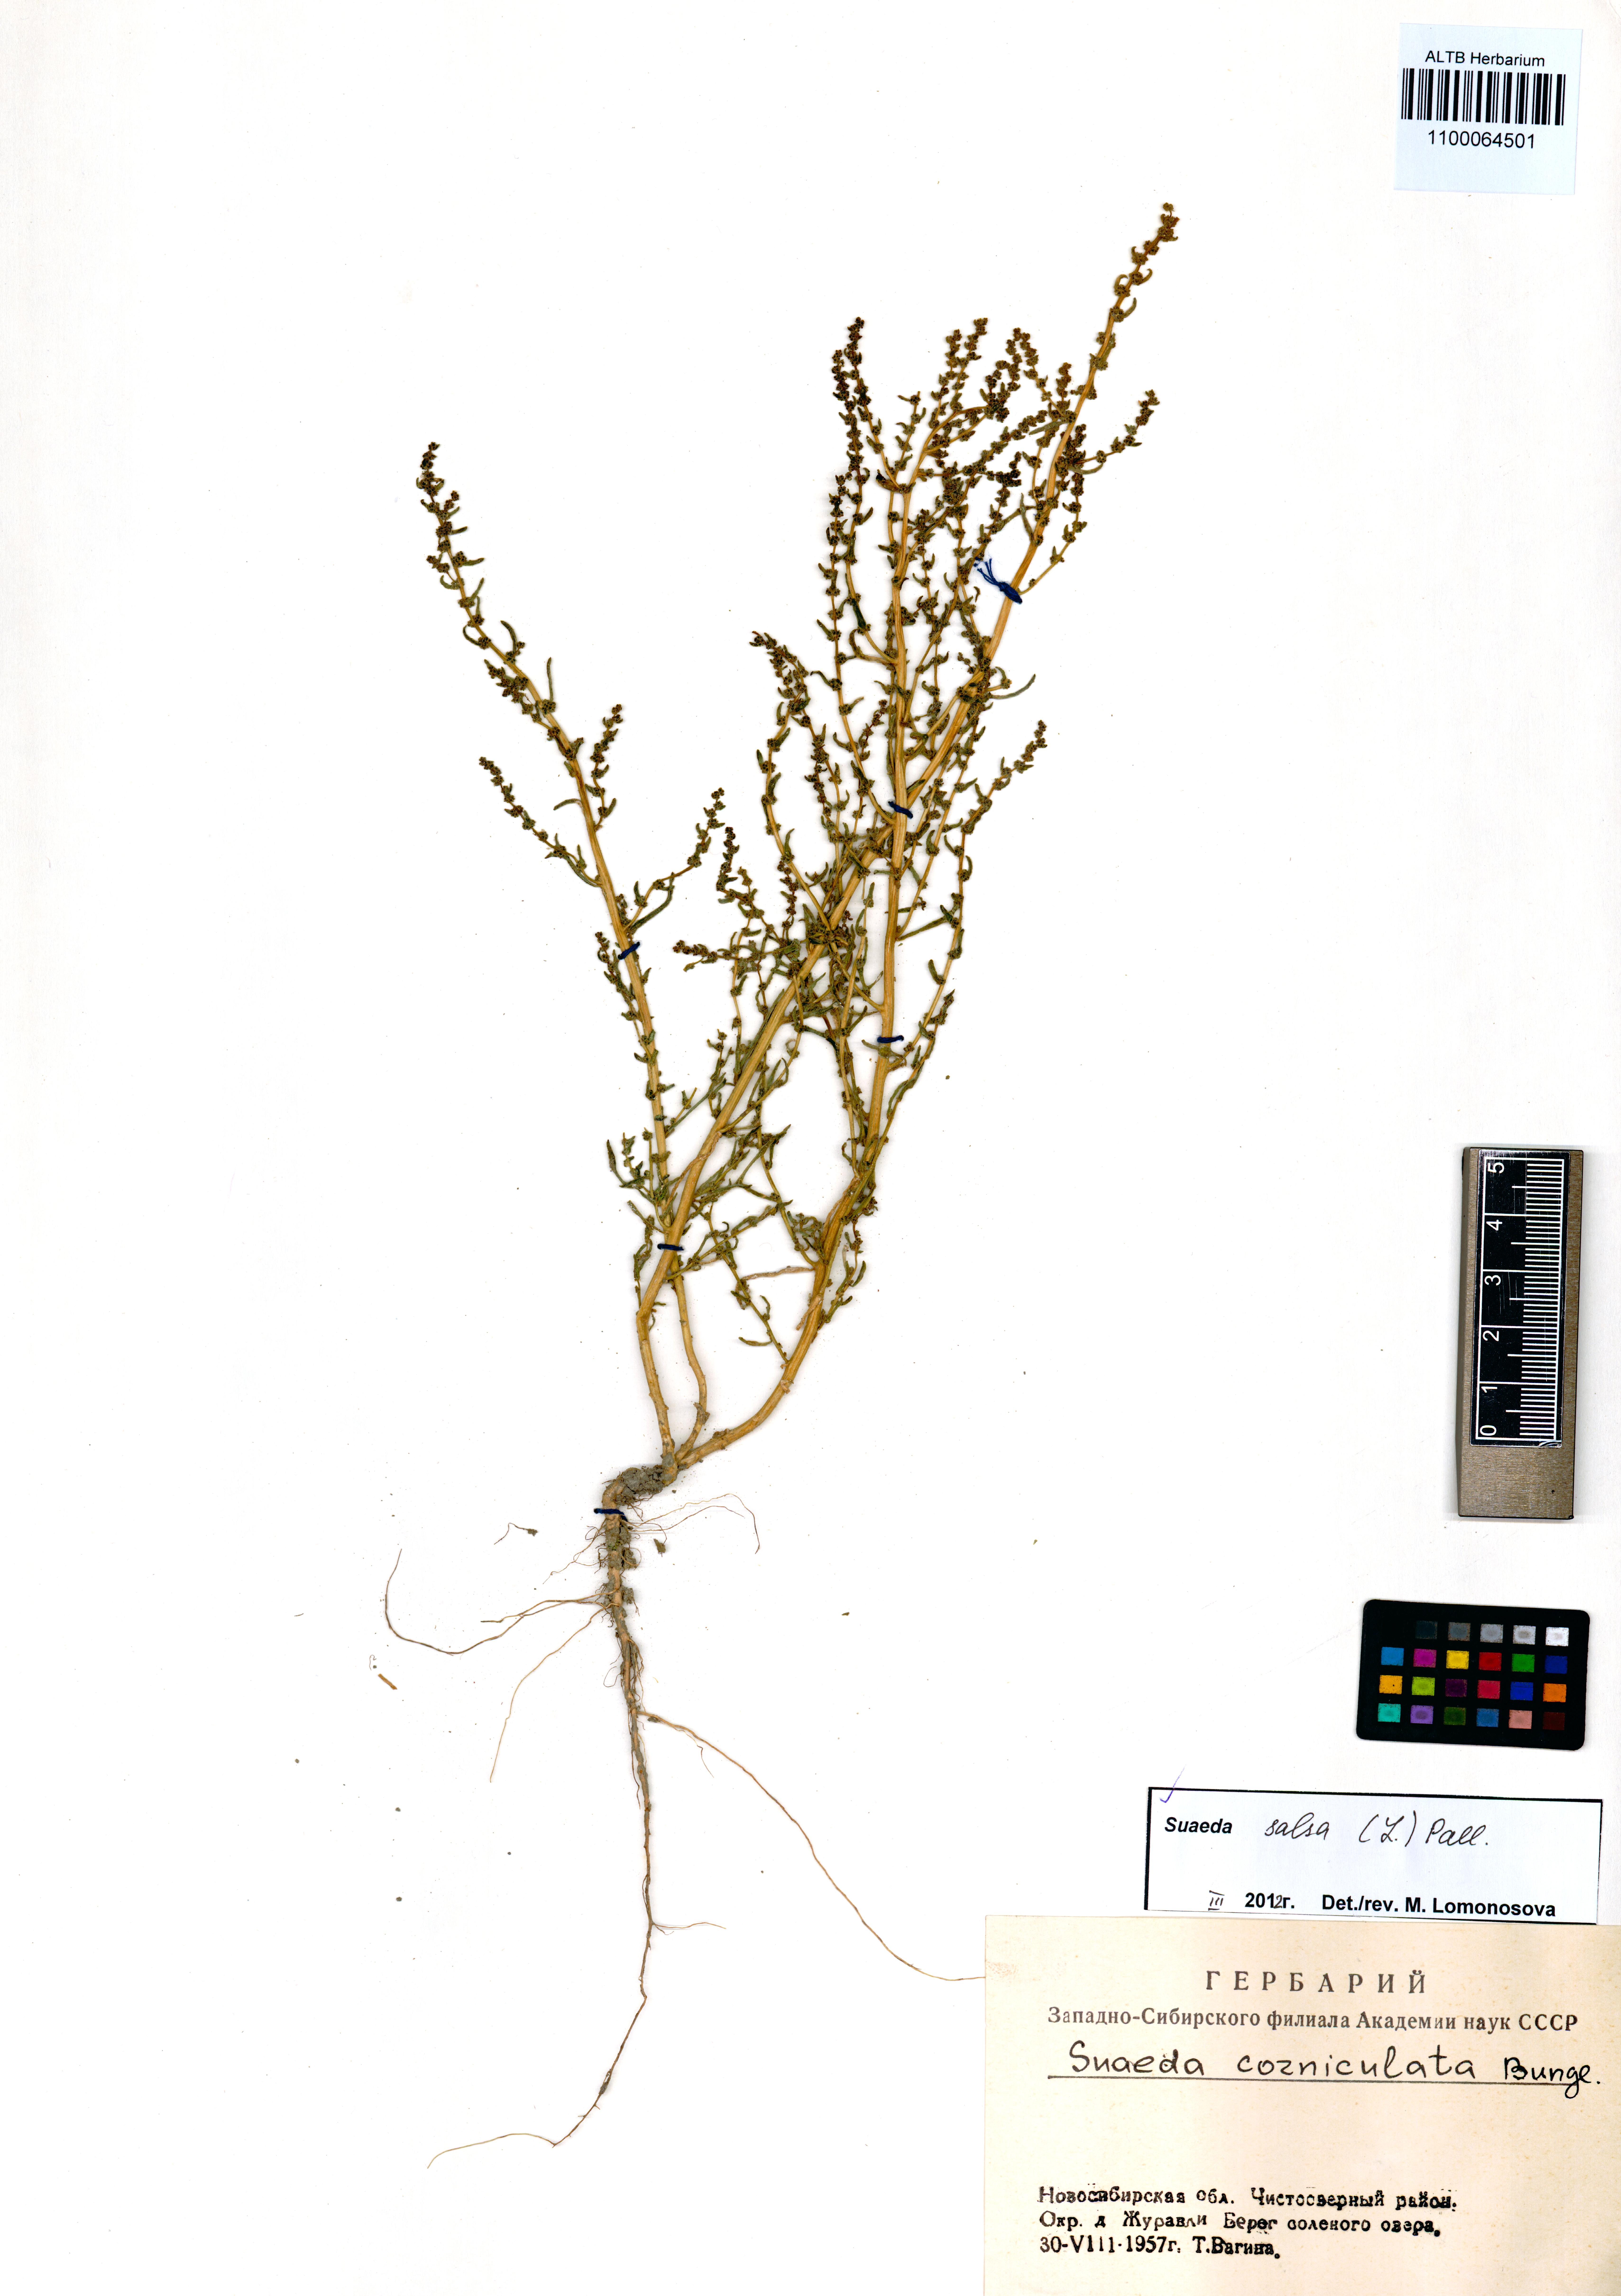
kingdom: Plantae
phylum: Tracheophyta
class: Magnoliopsida
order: Caryophyllales
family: Amaranthaceae
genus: Suaeda
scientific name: Suaeda salsa
